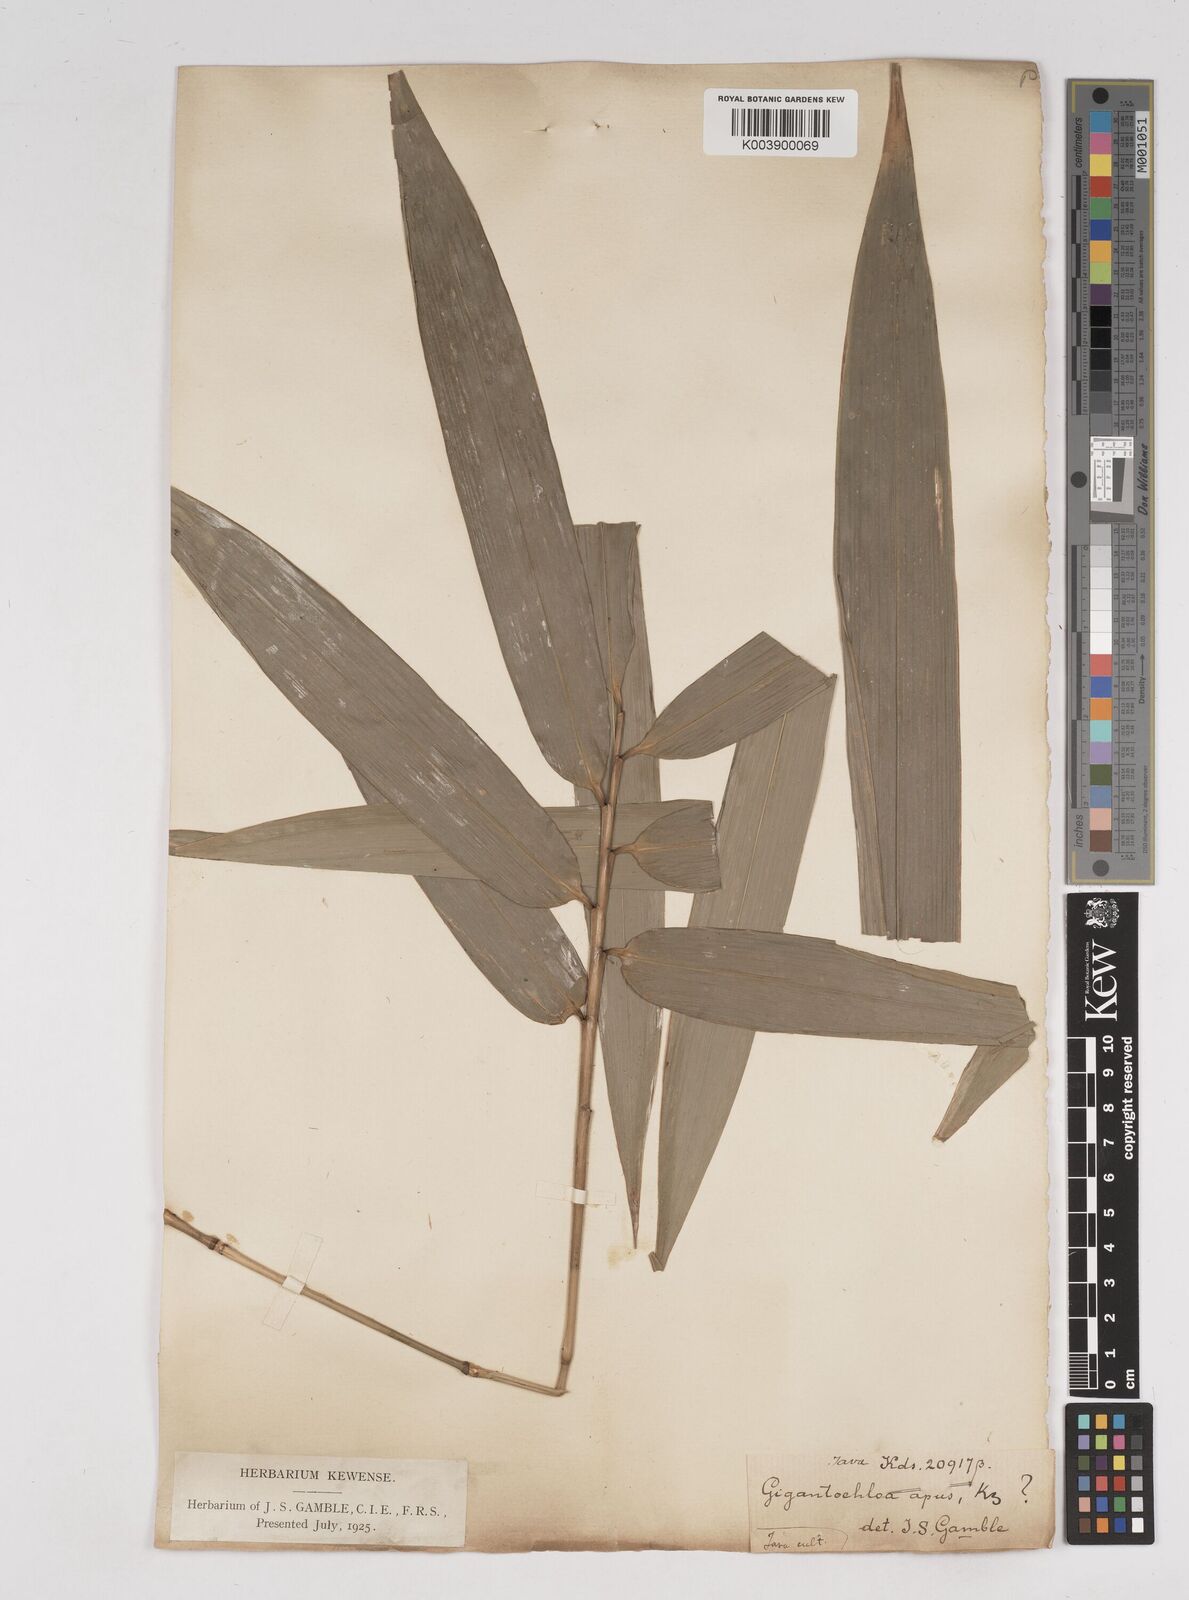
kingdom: Plantae
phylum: Tracheophyta
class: Liliopsida
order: Poales
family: Poaceae
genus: Gigantochloa
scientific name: Gigantochloa apus
